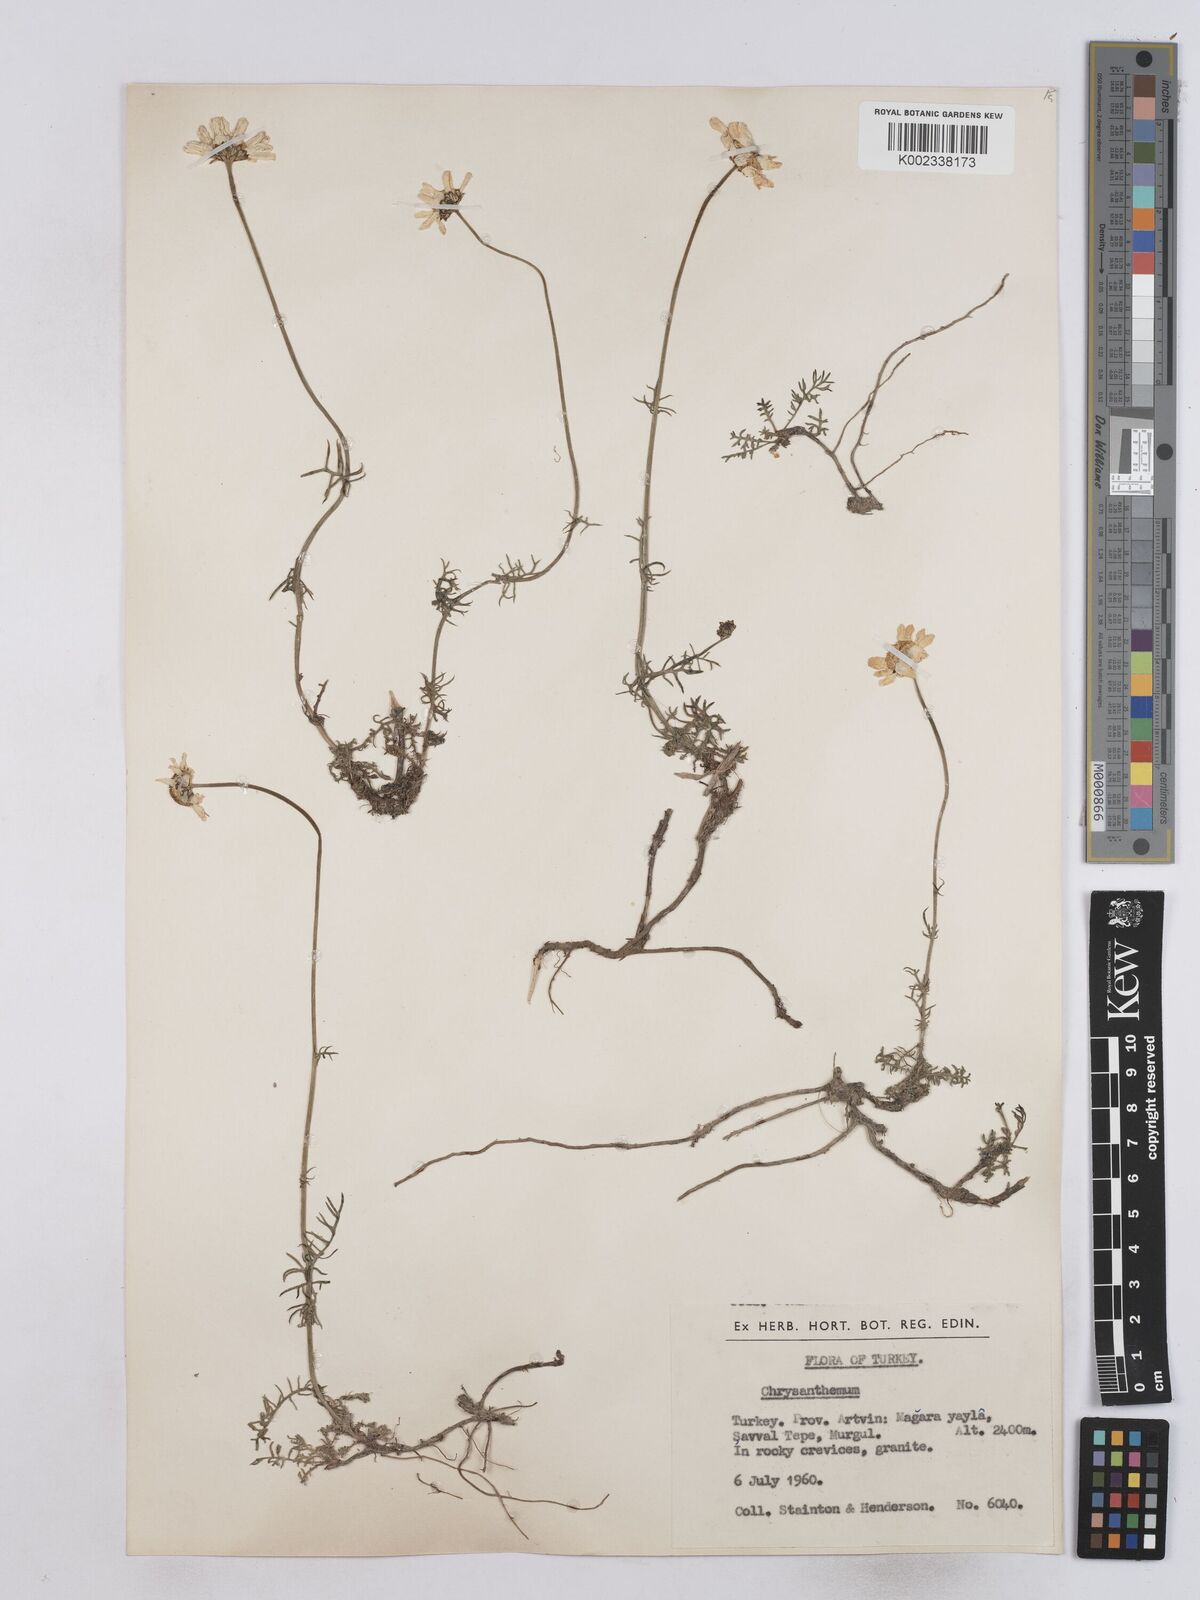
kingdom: Plantae
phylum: Tracheophyta
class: Magnoliopsida
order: Asterales
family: Asteraceae
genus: Matricaria
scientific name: Matricaria
